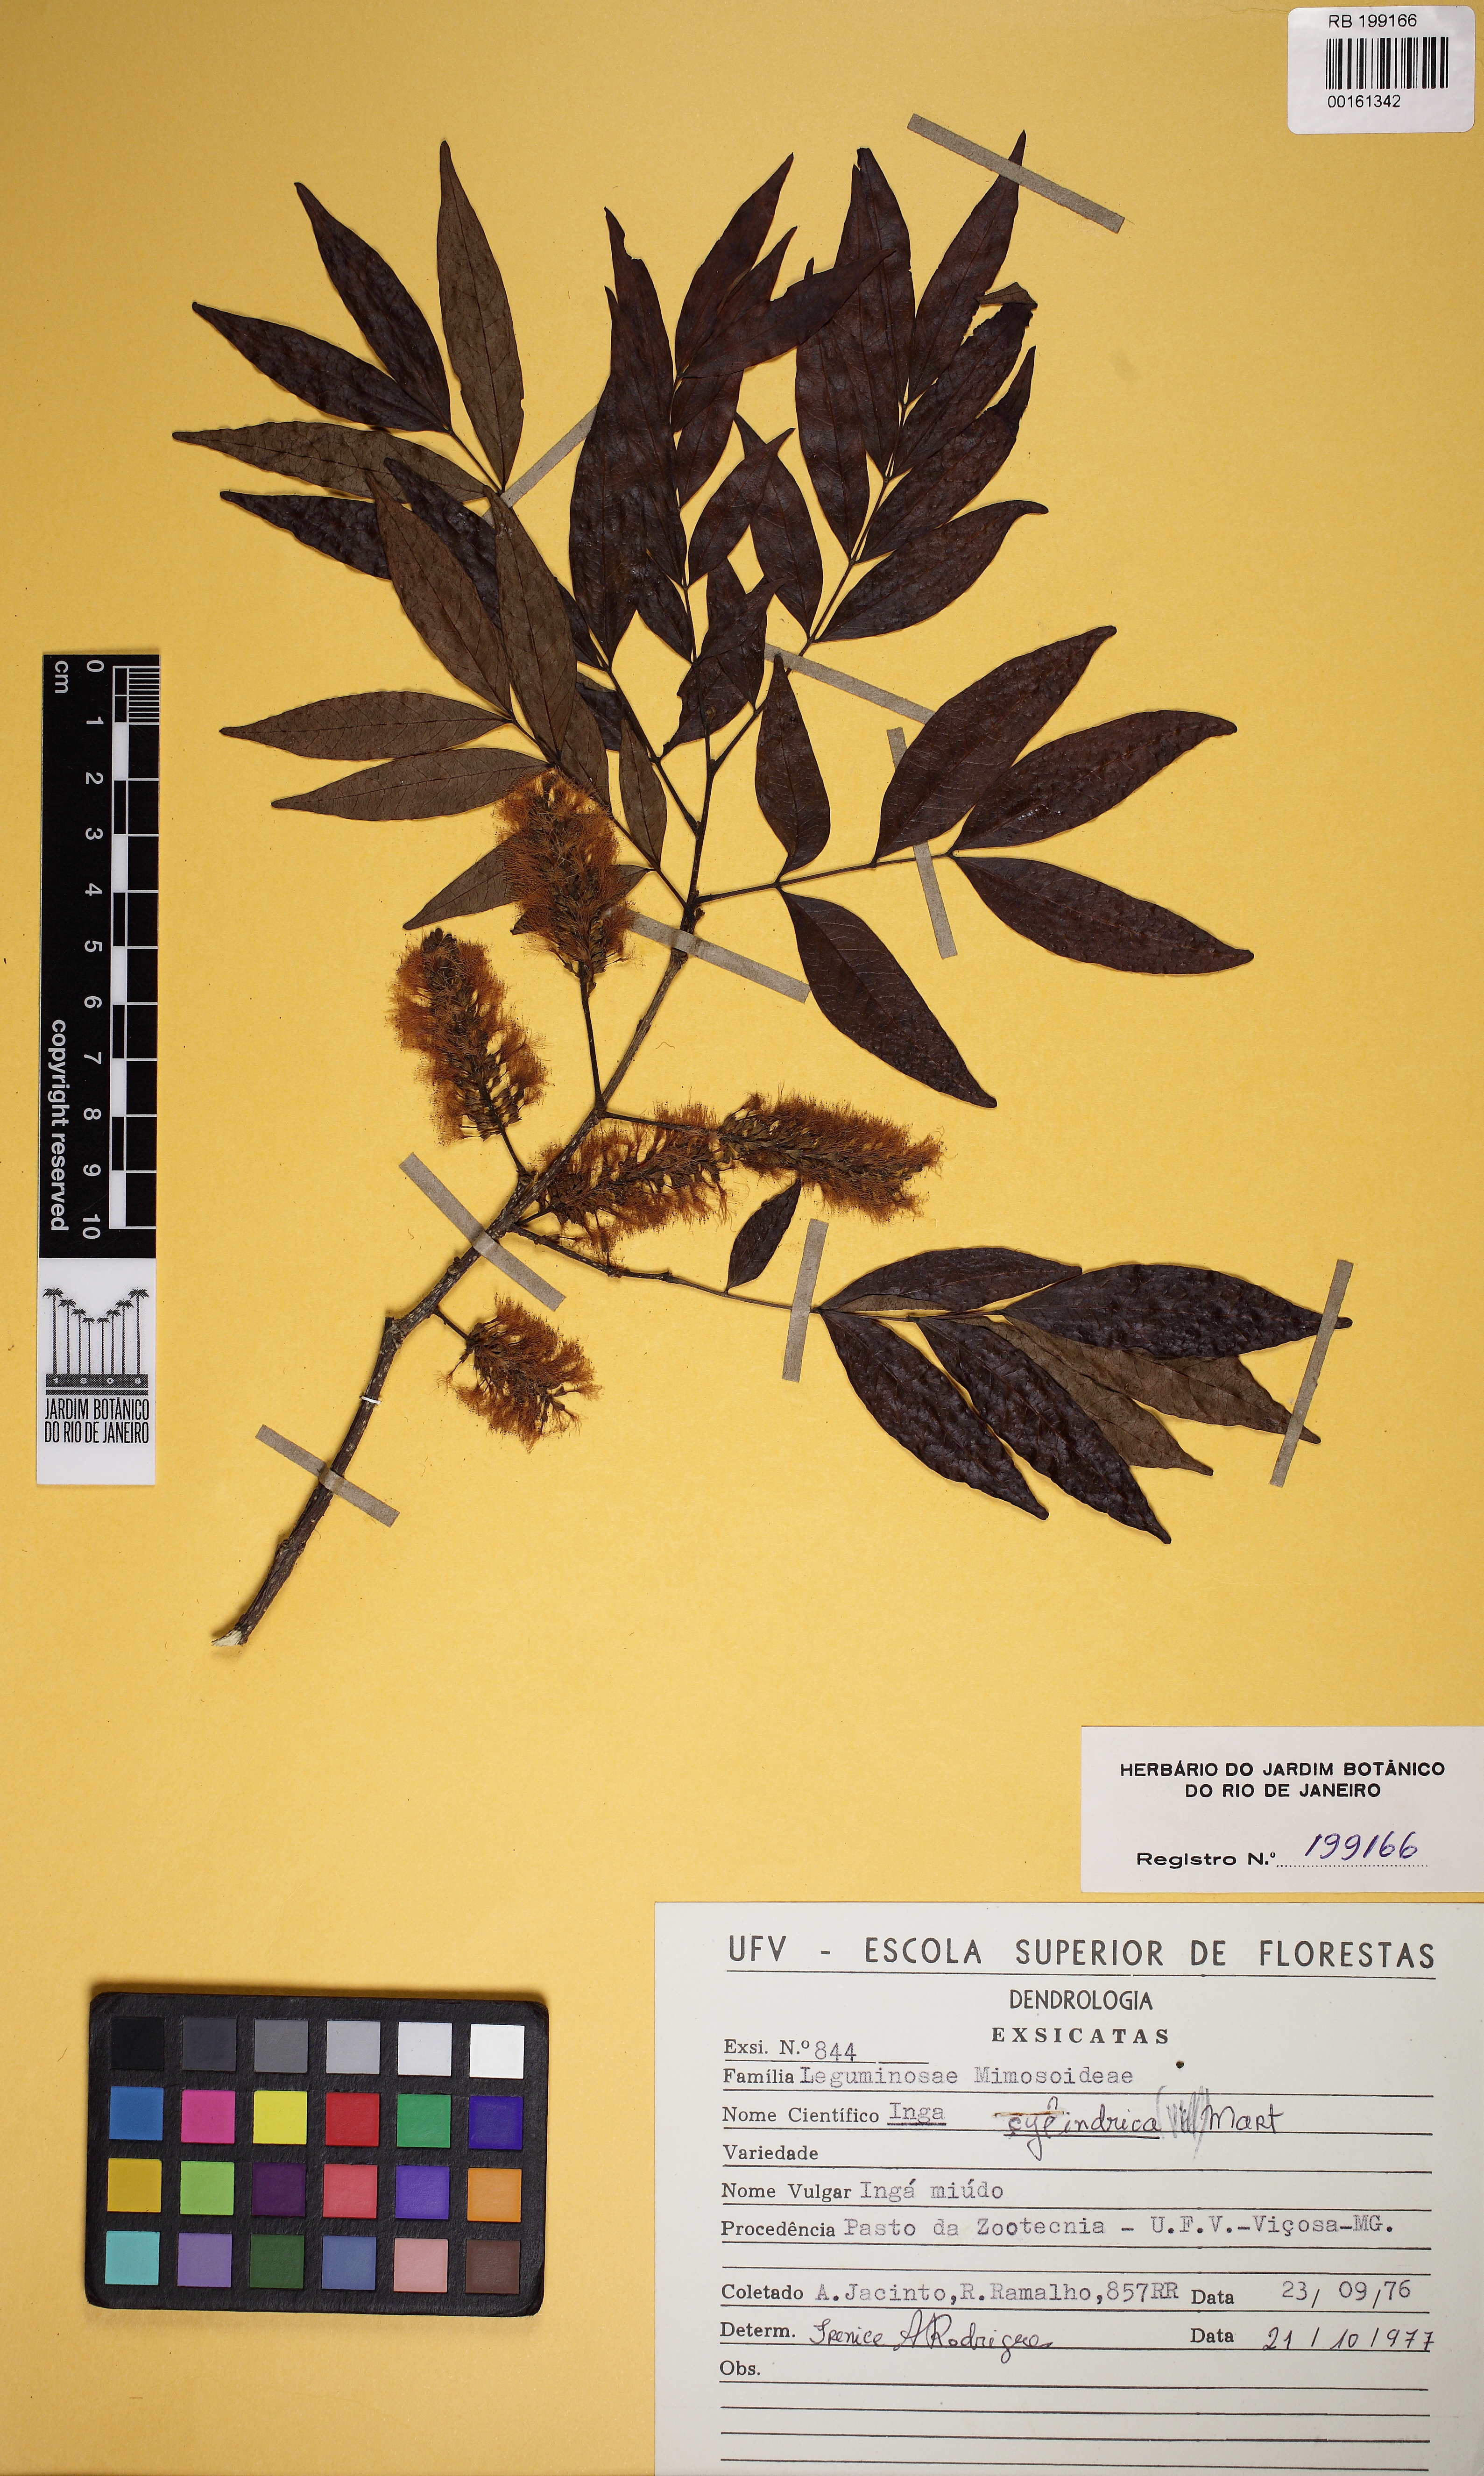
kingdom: Plantae
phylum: Tracheophyta
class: Magnoliopsida
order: Fabales
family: Fabaceae
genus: Inga
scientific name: Inga cylindrica
